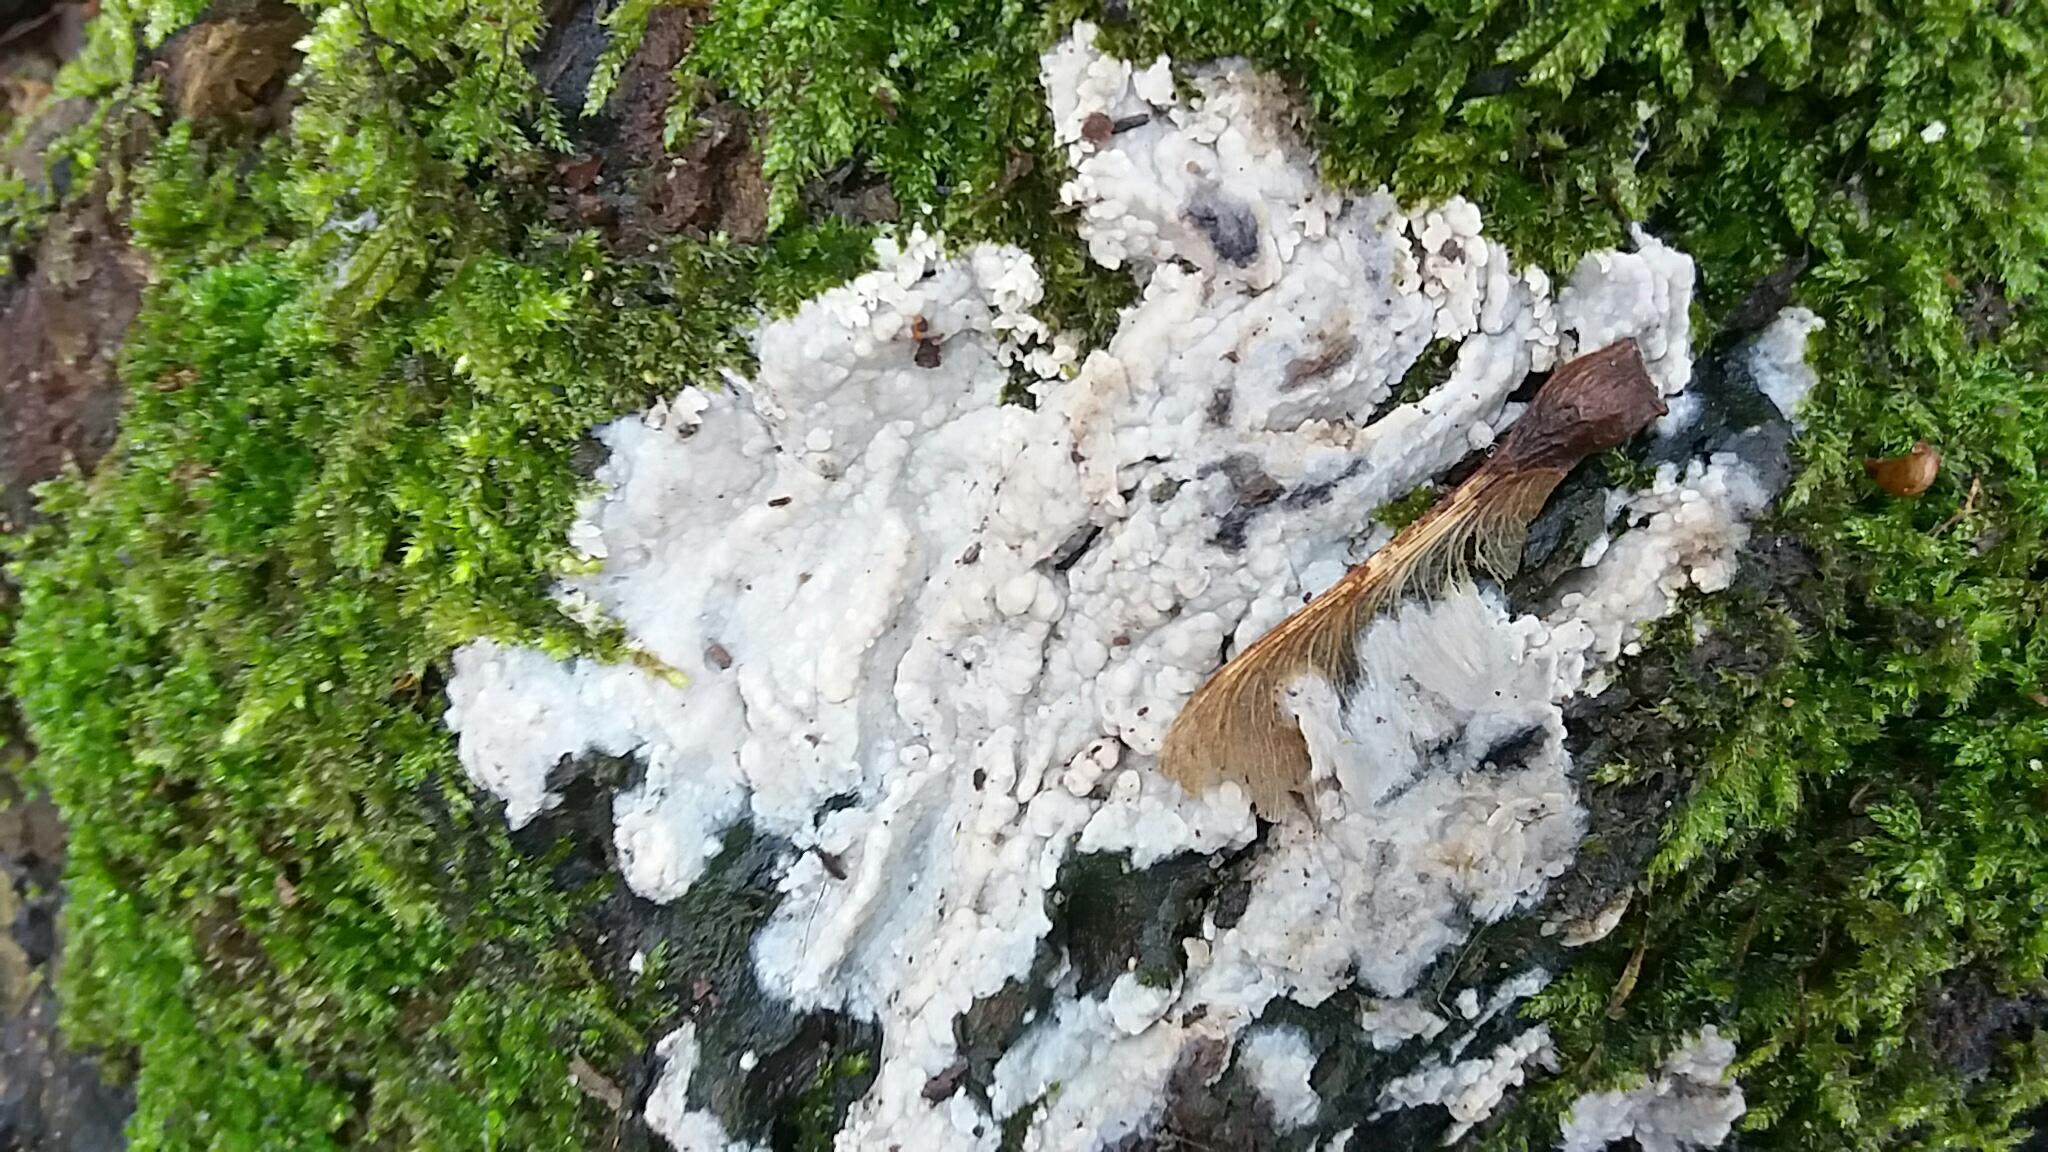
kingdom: Fungi
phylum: Basidiomycota
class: Agaricomycetes
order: Polyporales
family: Meruliaceae
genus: Physisporinus
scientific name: Physisporinus vitreus
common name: mastesvamp
